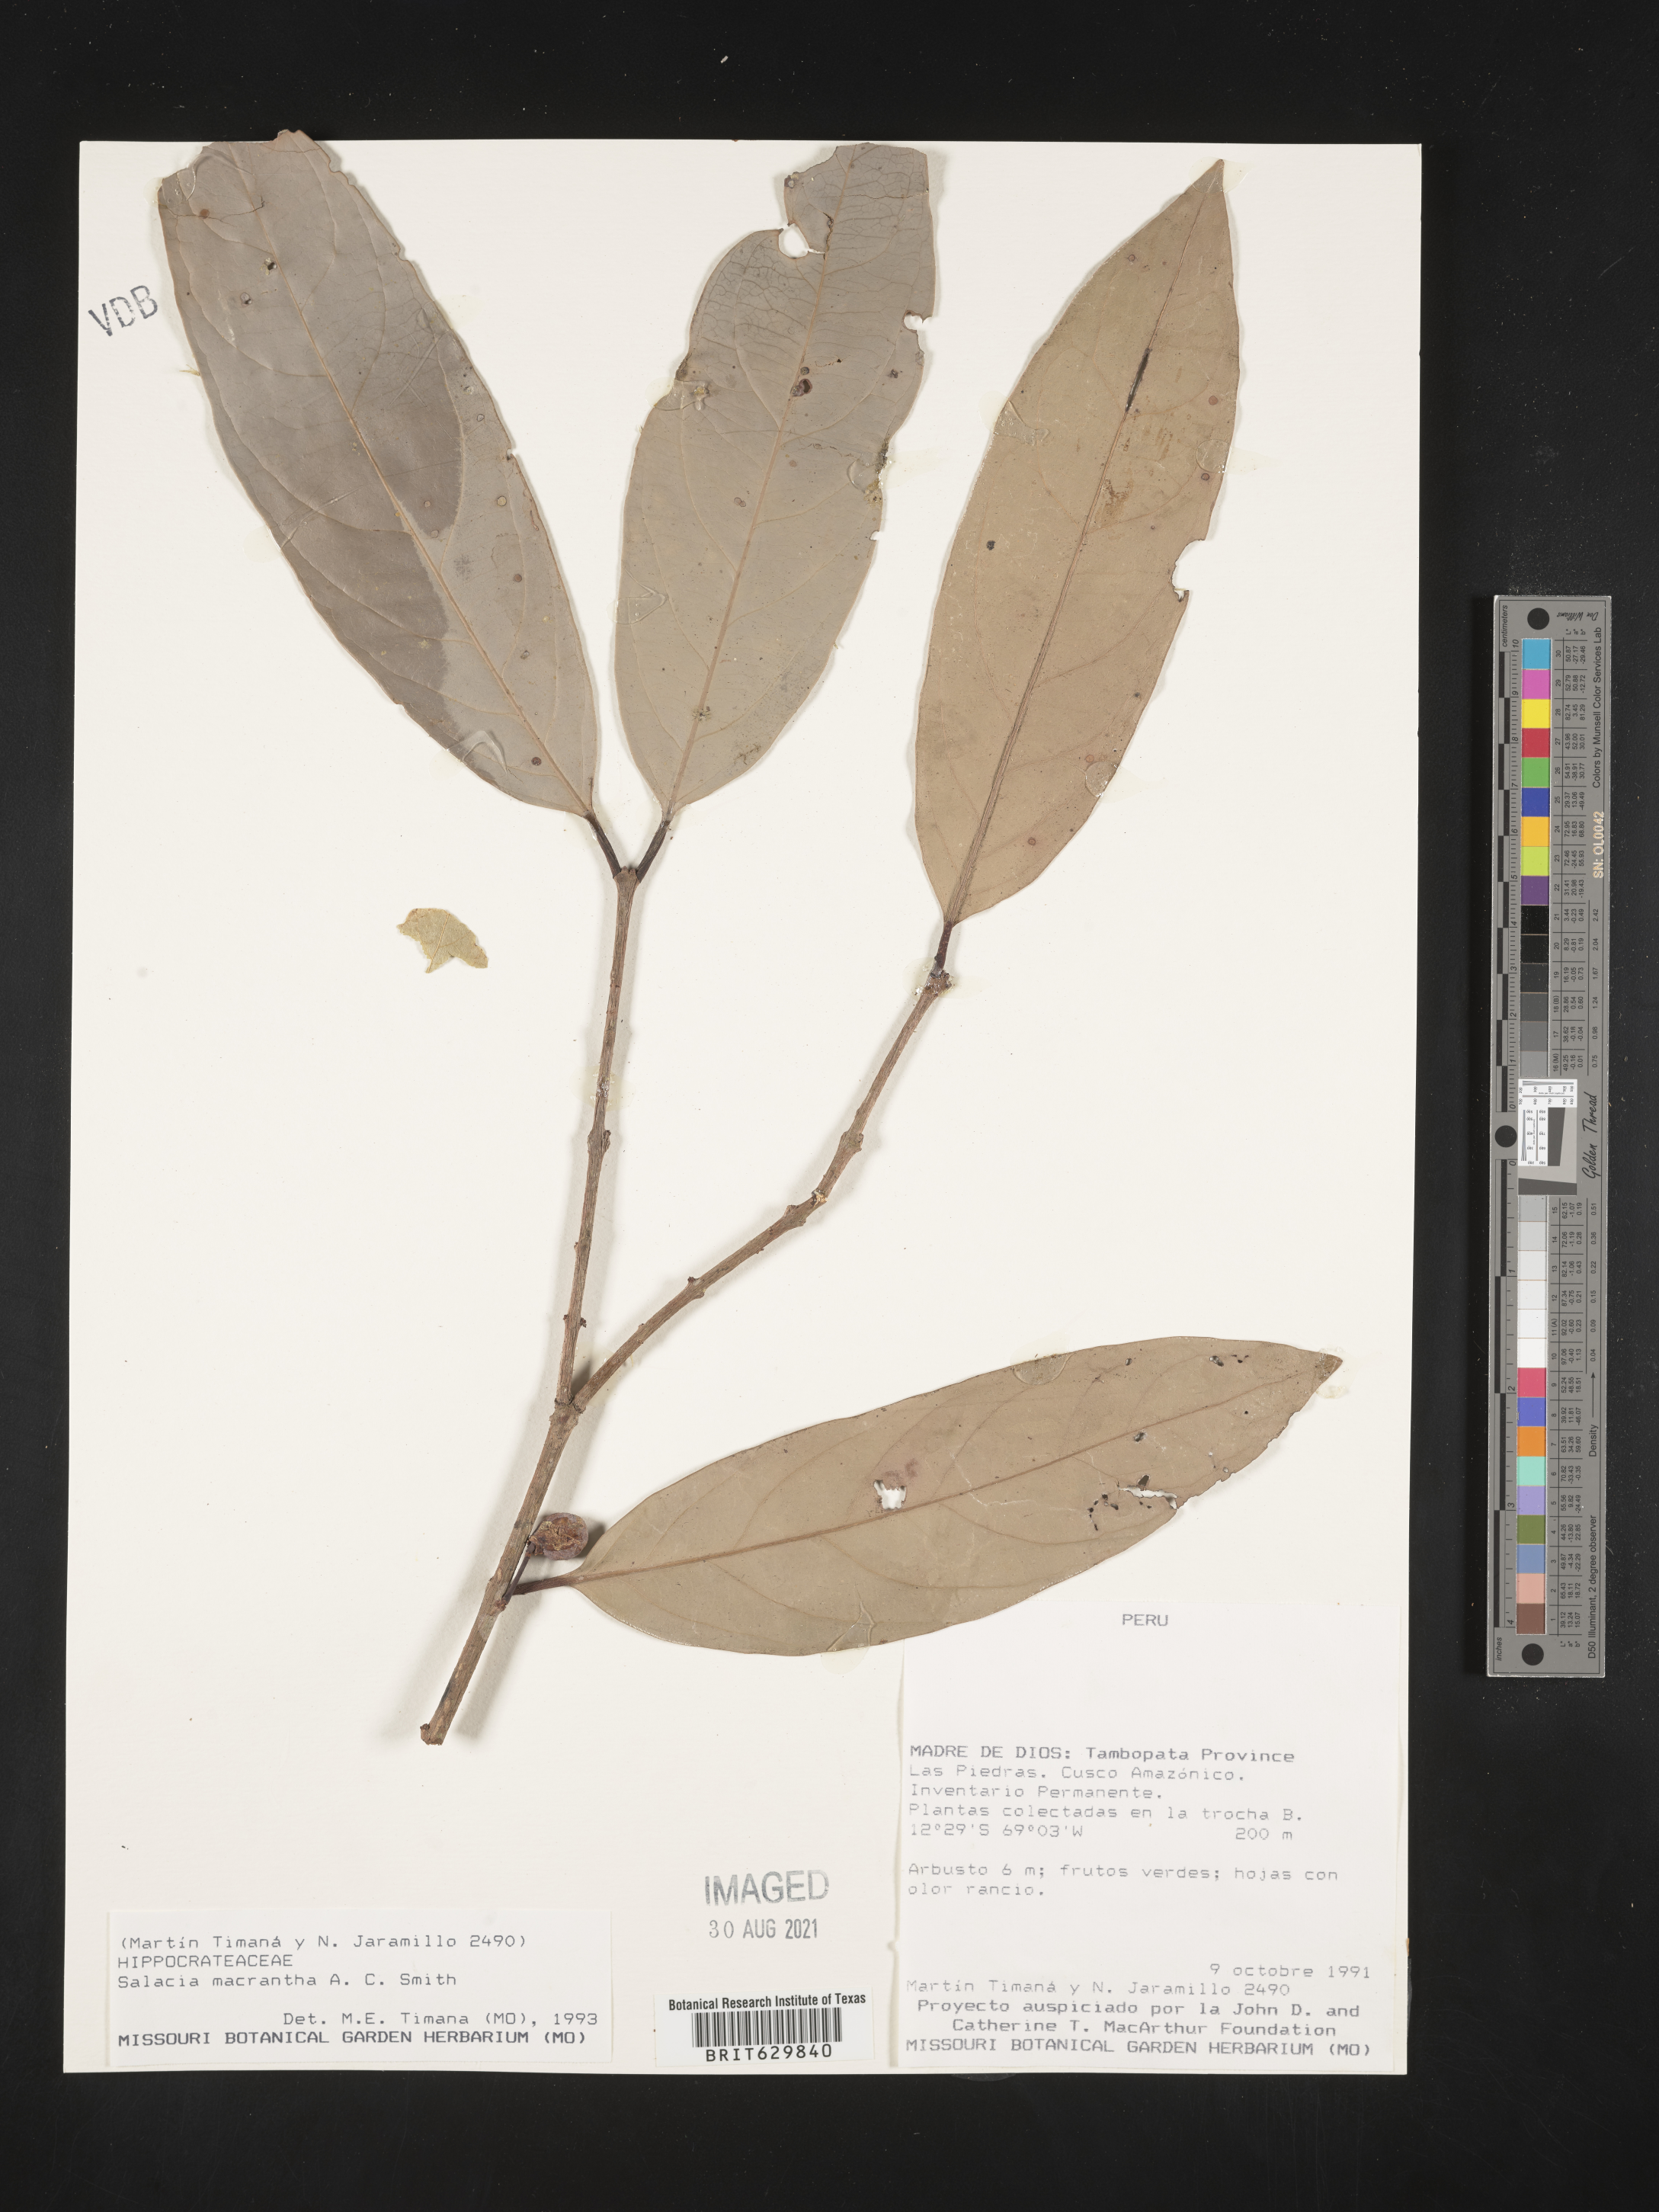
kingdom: Plantae
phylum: Tracheophyta
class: Magnoliopsida
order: Celastrales
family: Celastraceae
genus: Salacia
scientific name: Salacia macrantha
